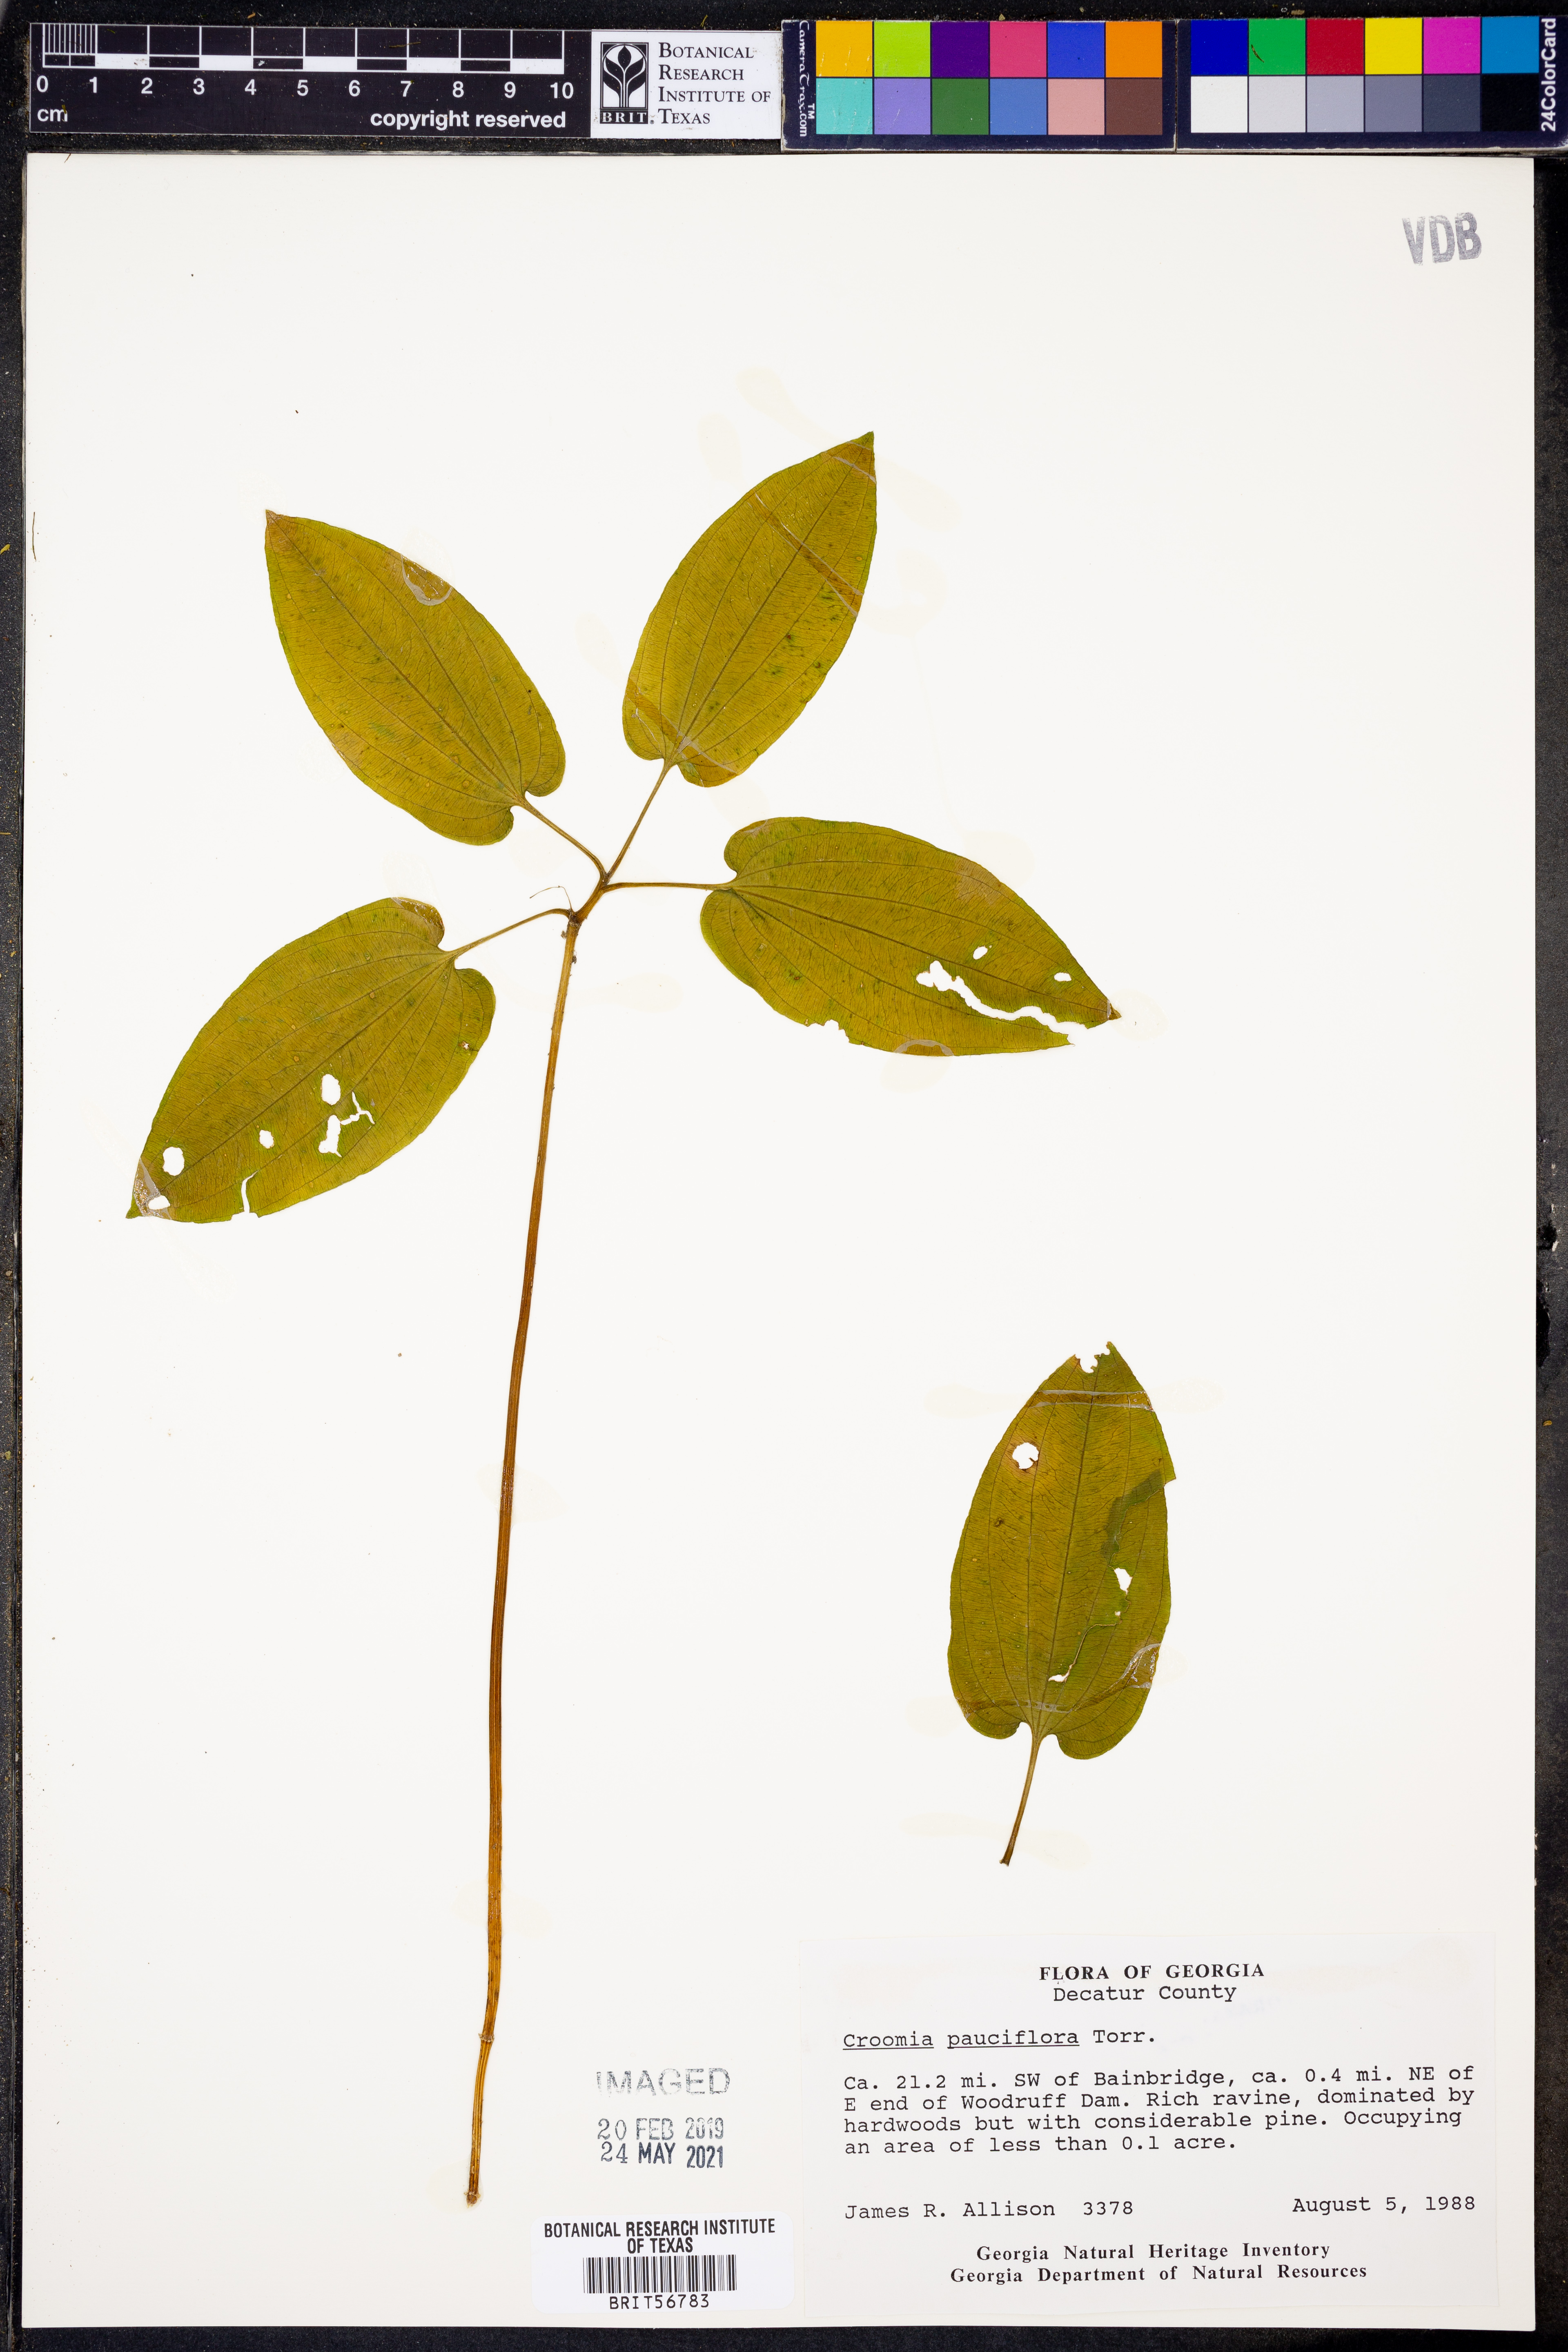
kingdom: Plantae
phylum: Tracheophyta
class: Liliopsida
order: Pandanales
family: Stemonaceae
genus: Croomia
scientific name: Croomia pauciflora
